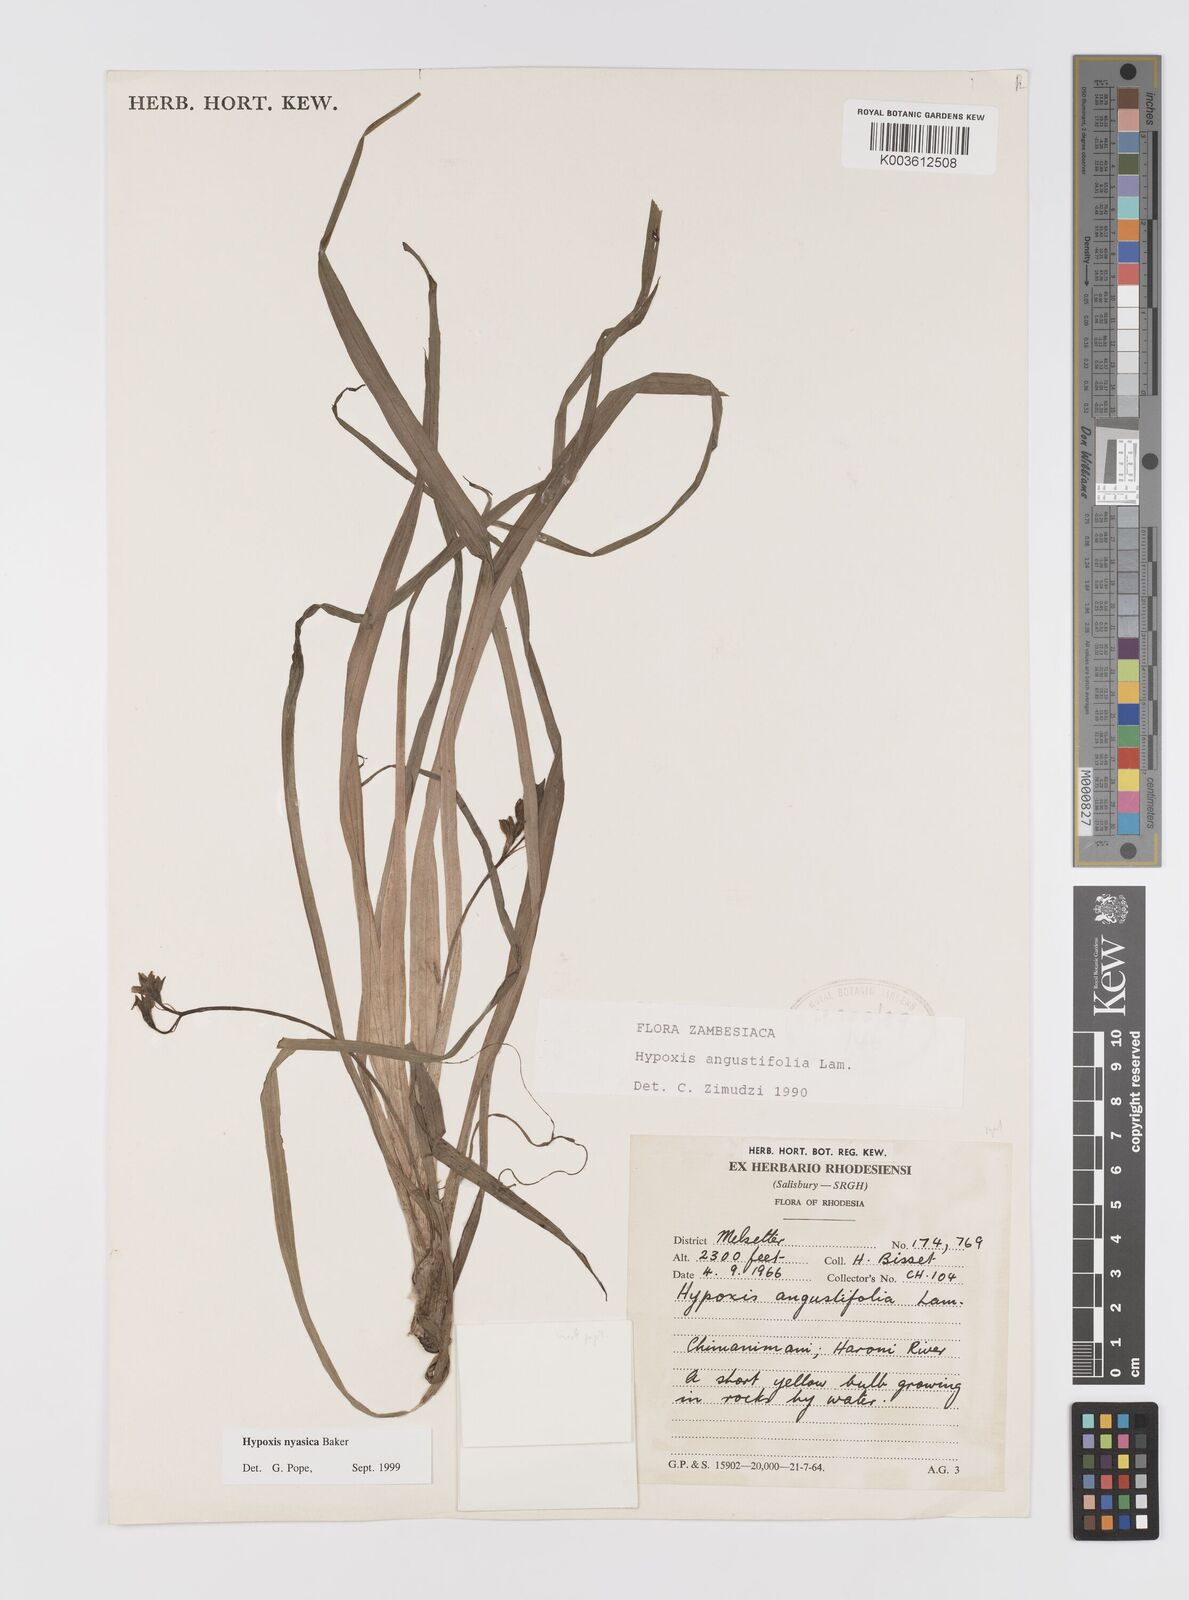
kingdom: Plantae
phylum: Tracheophyta
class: Liliopsida
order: Asparagales
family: Hypoxidaceae
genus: Hypoxis
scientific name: Hypoxis nyasica
